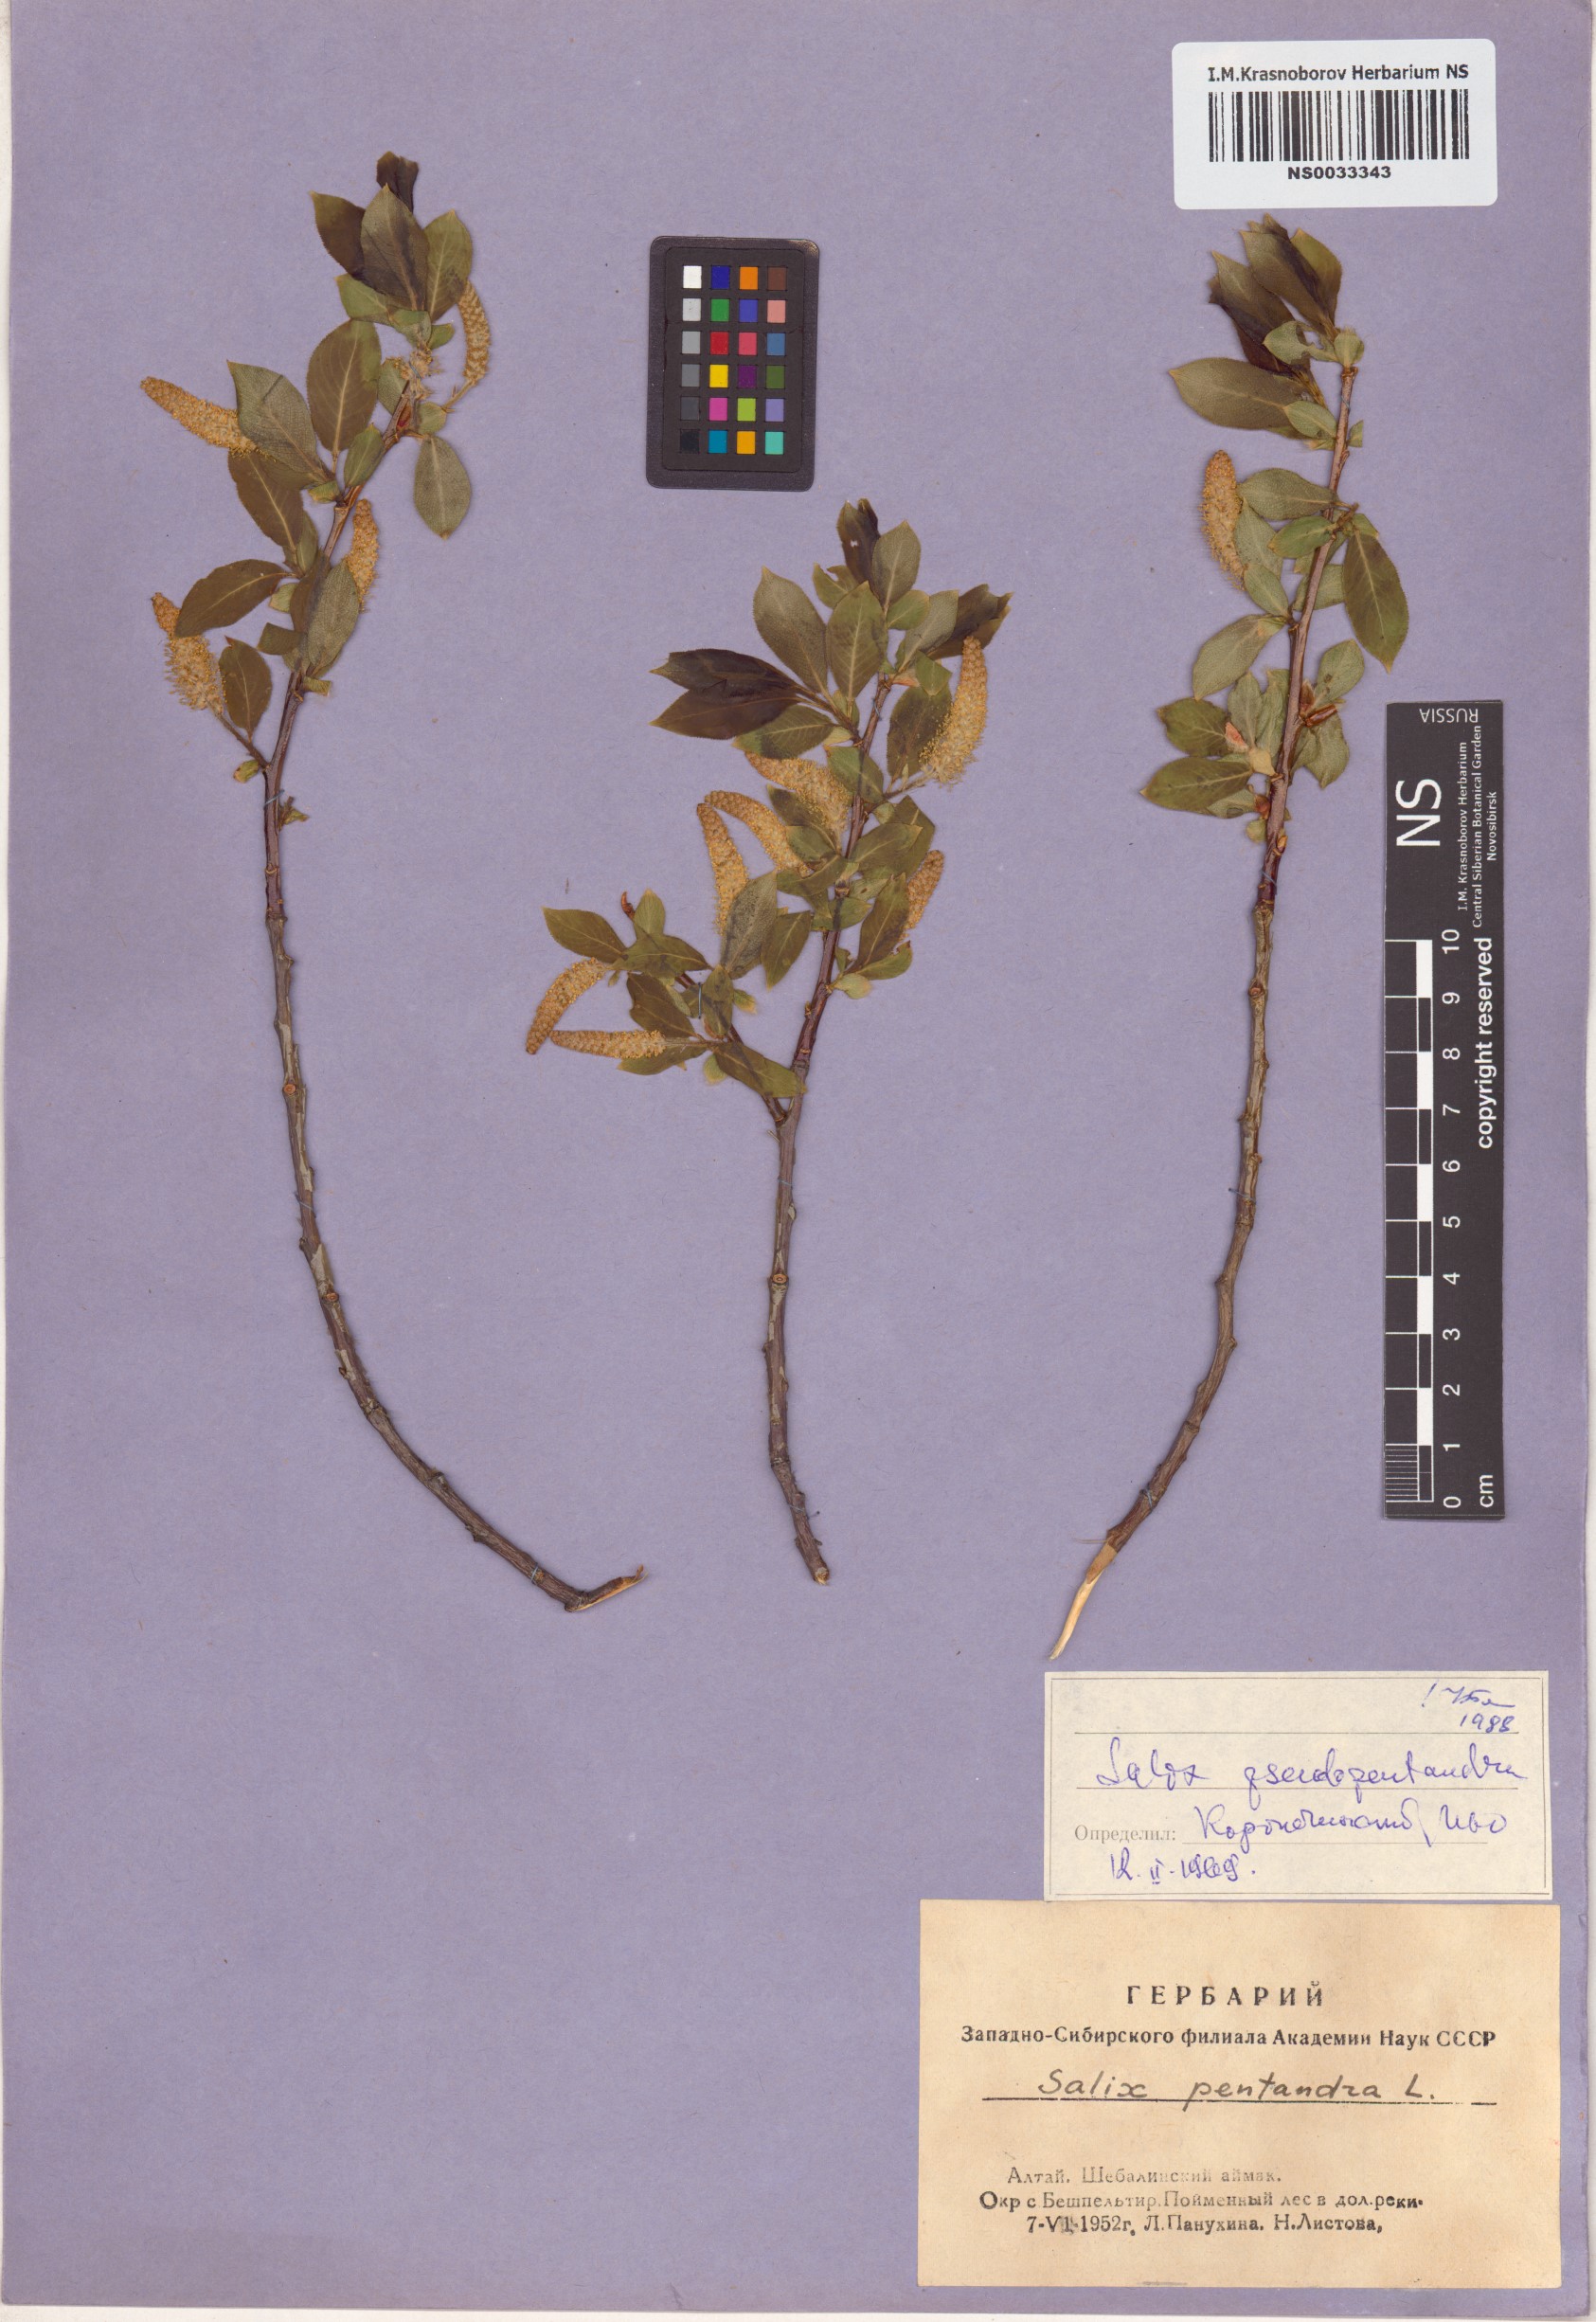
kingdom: Plantae
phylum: Tracheophyta
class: Magnoliopsida
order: Malpighiales
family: Salicaceae
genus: Salix
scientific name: Salix pseudopentandra
